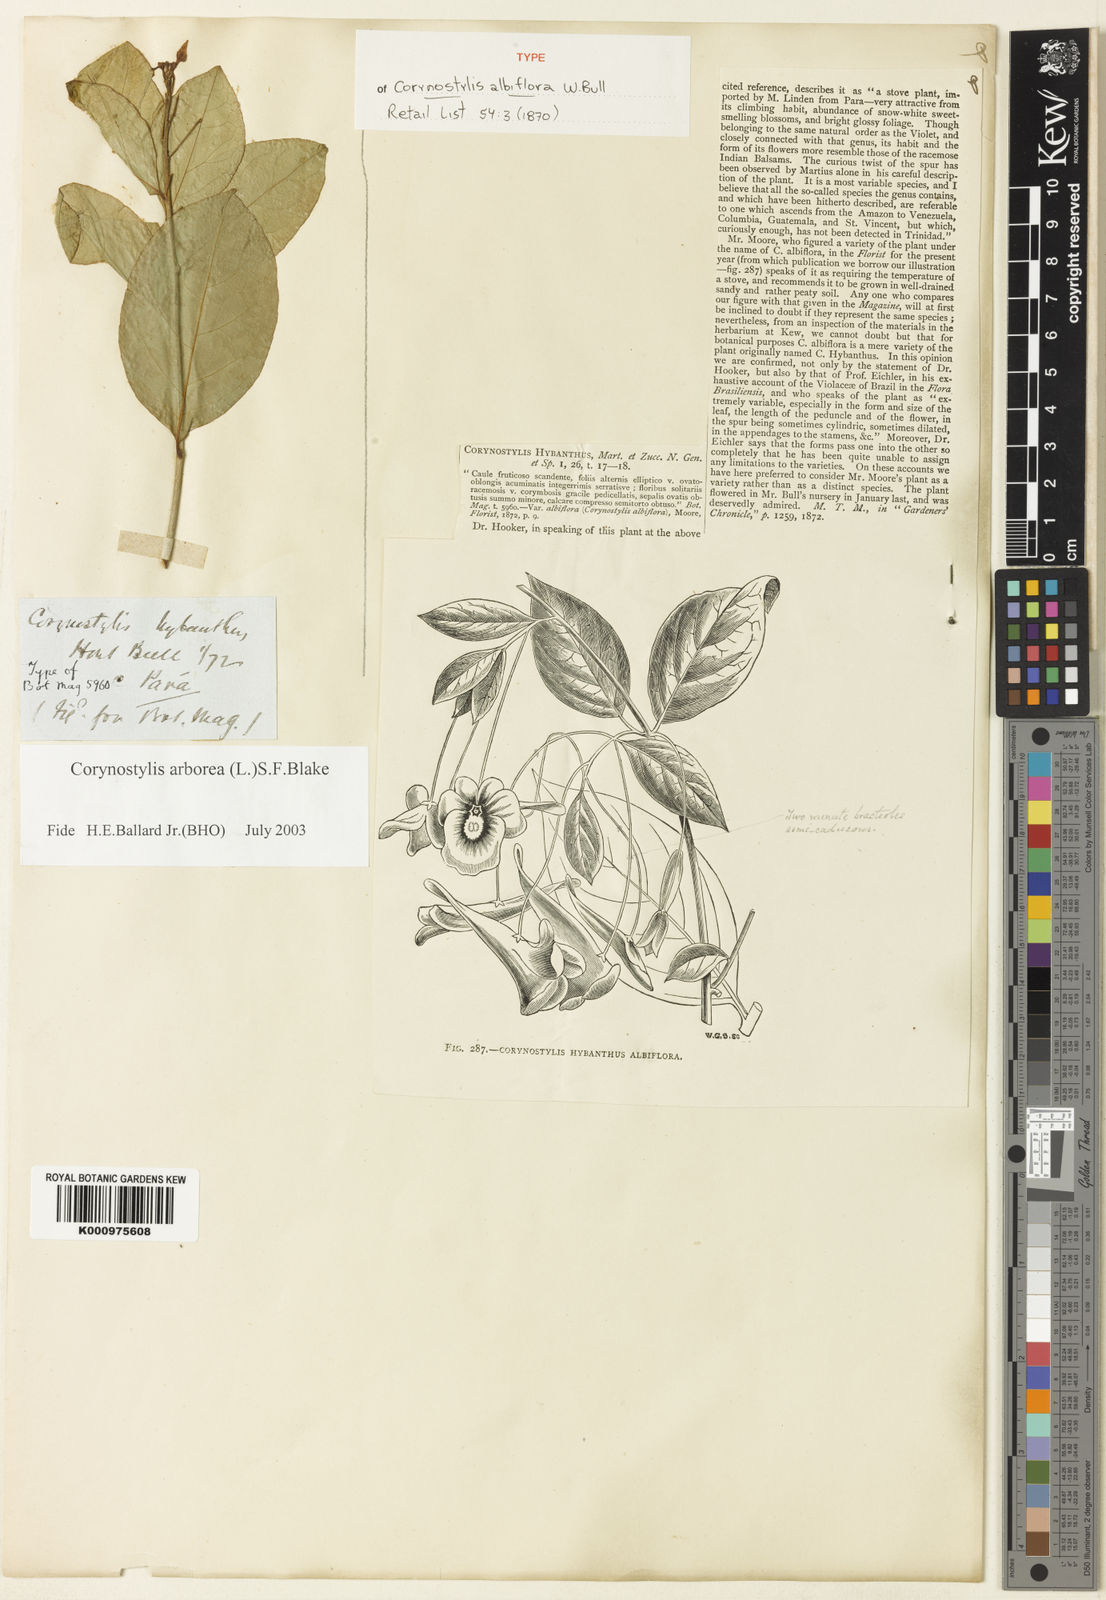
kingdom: Plantae
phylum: Tracheophyta
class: Magnoliopsida
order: Malpighiales
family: Violaceae
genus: Calyptrion
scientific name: Calyptrion arboreum
